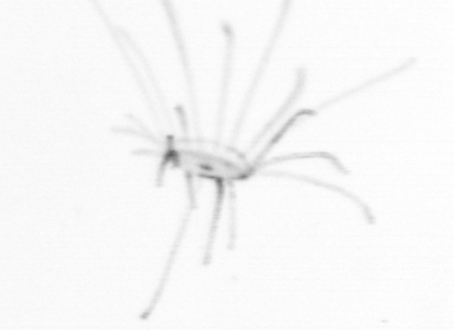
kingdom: Animalia
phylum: Cnidaria
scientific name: Cnidaria
